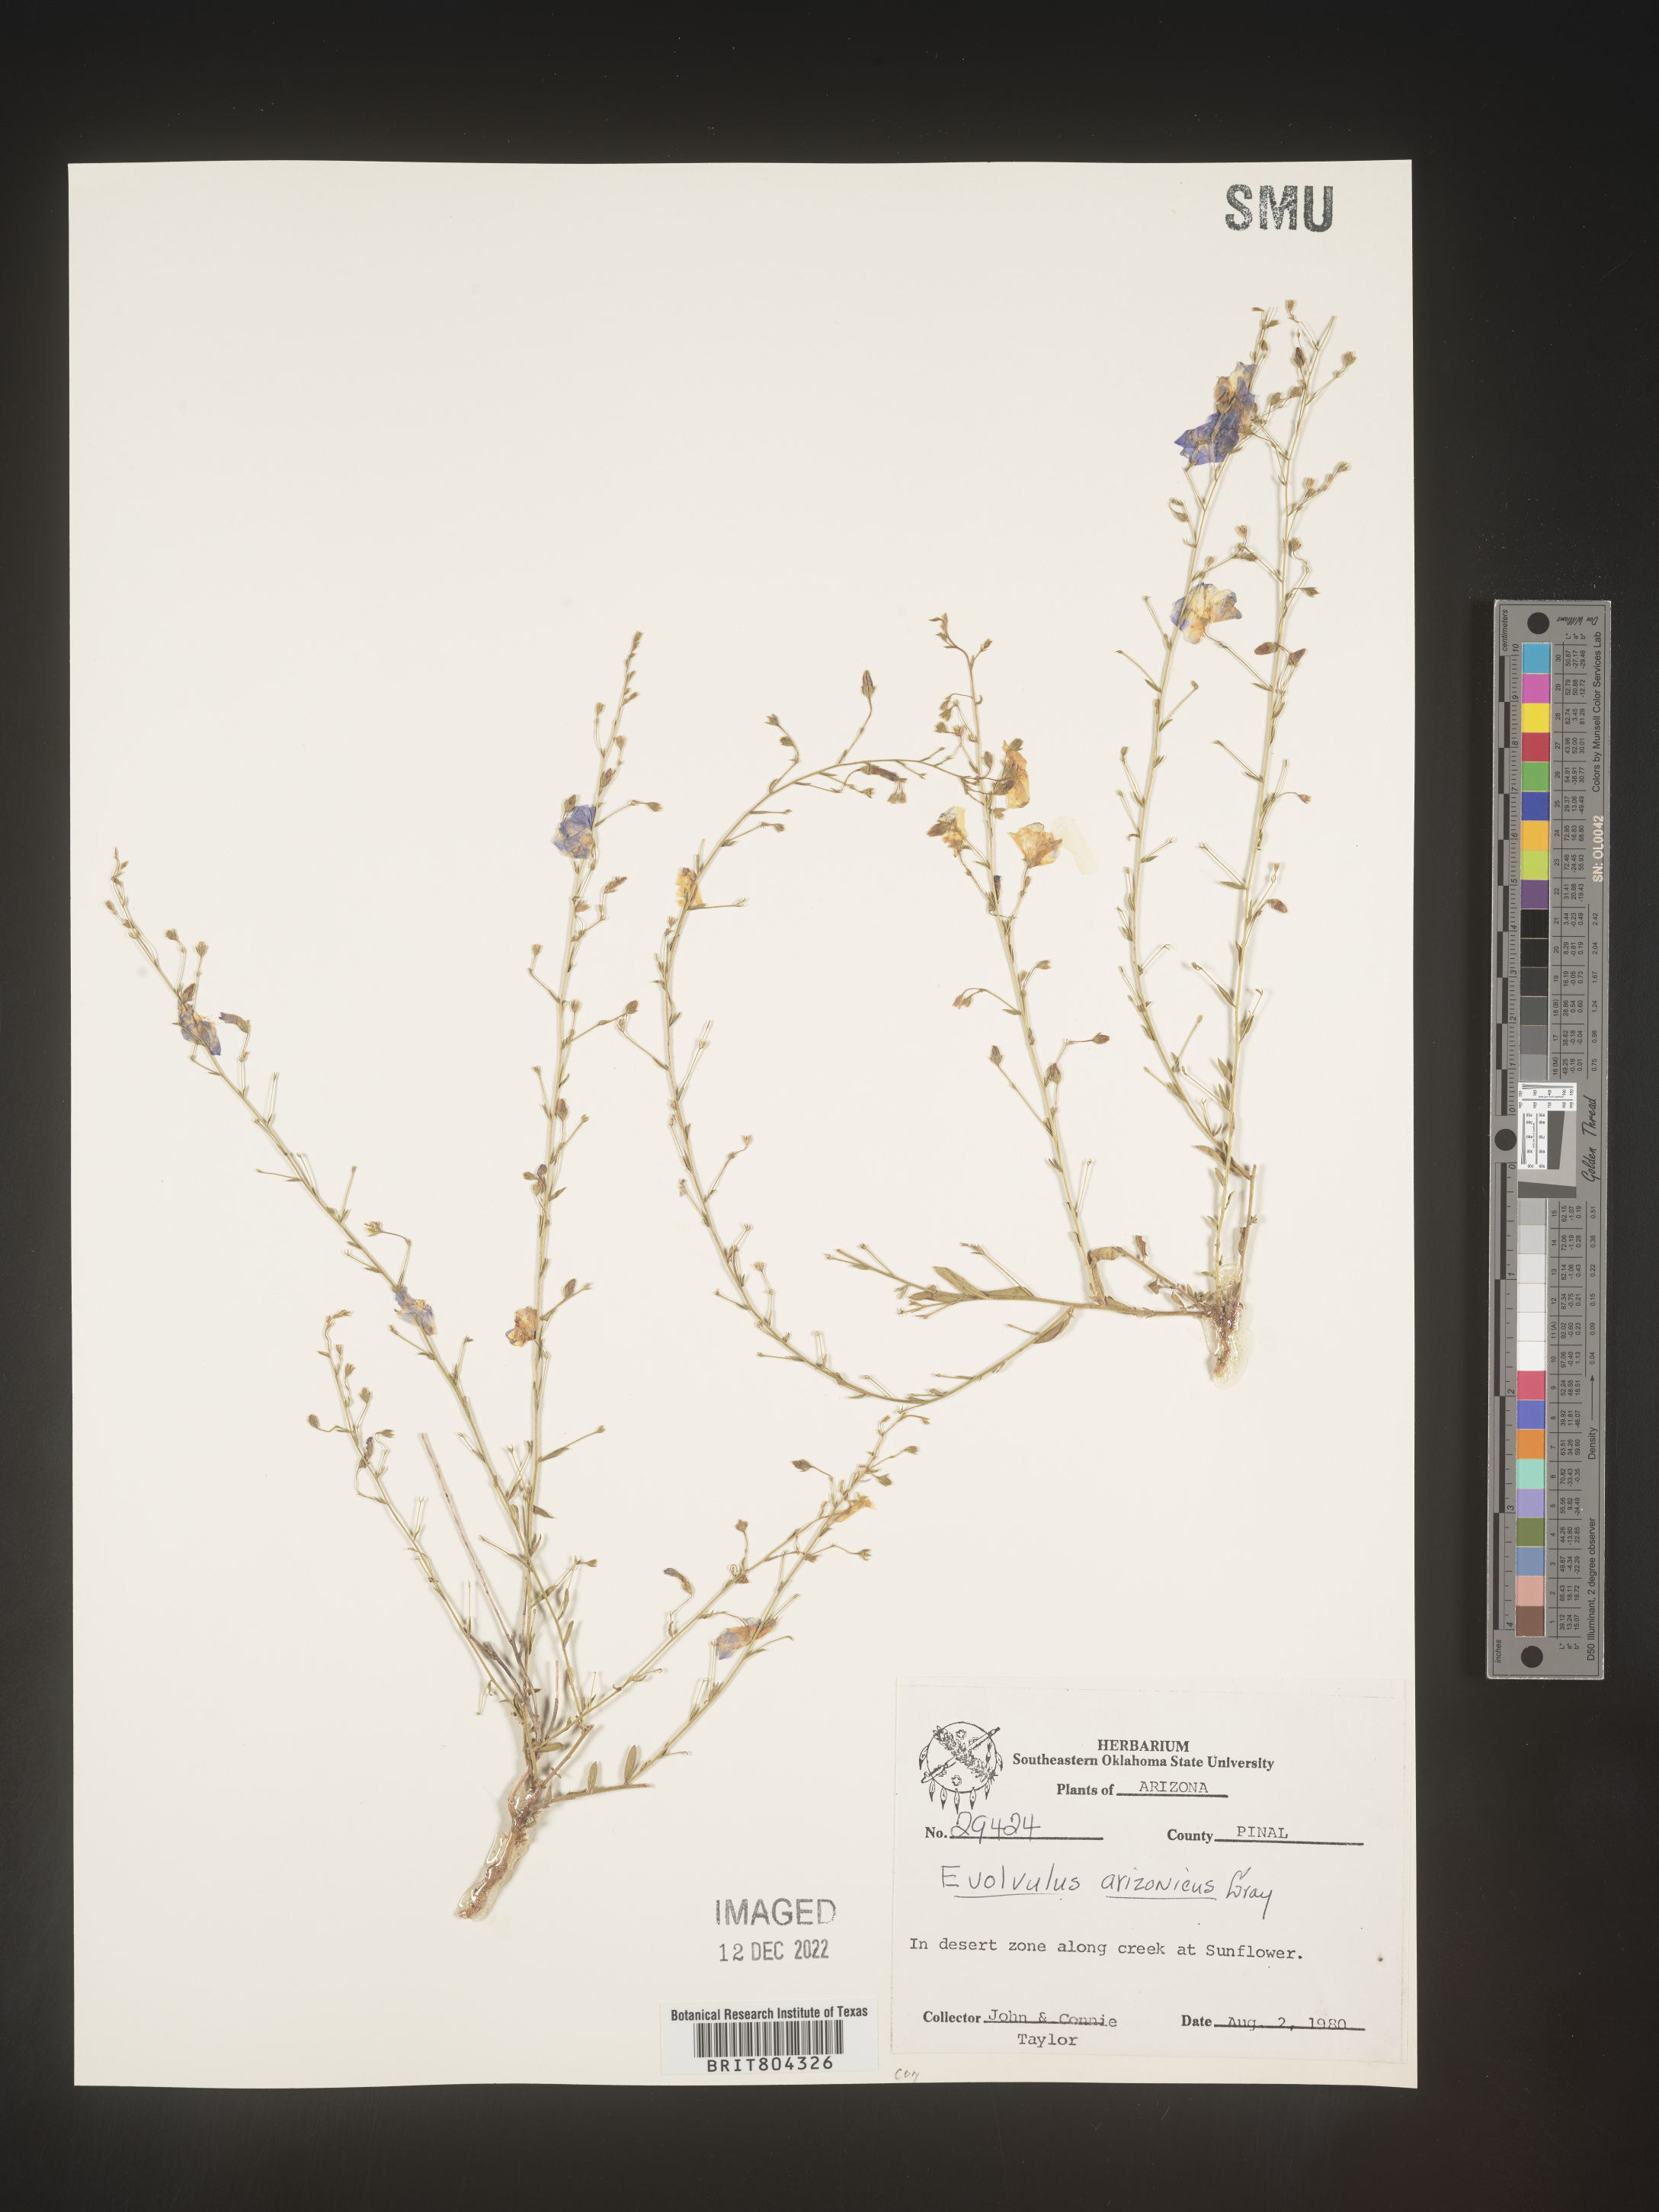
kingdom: Plantae
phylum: Tracheophyta
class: Magnoliopsida
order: Solanales
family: Convolvulaceae
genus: Evolvulus
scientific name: Evolvulus arizonicus
